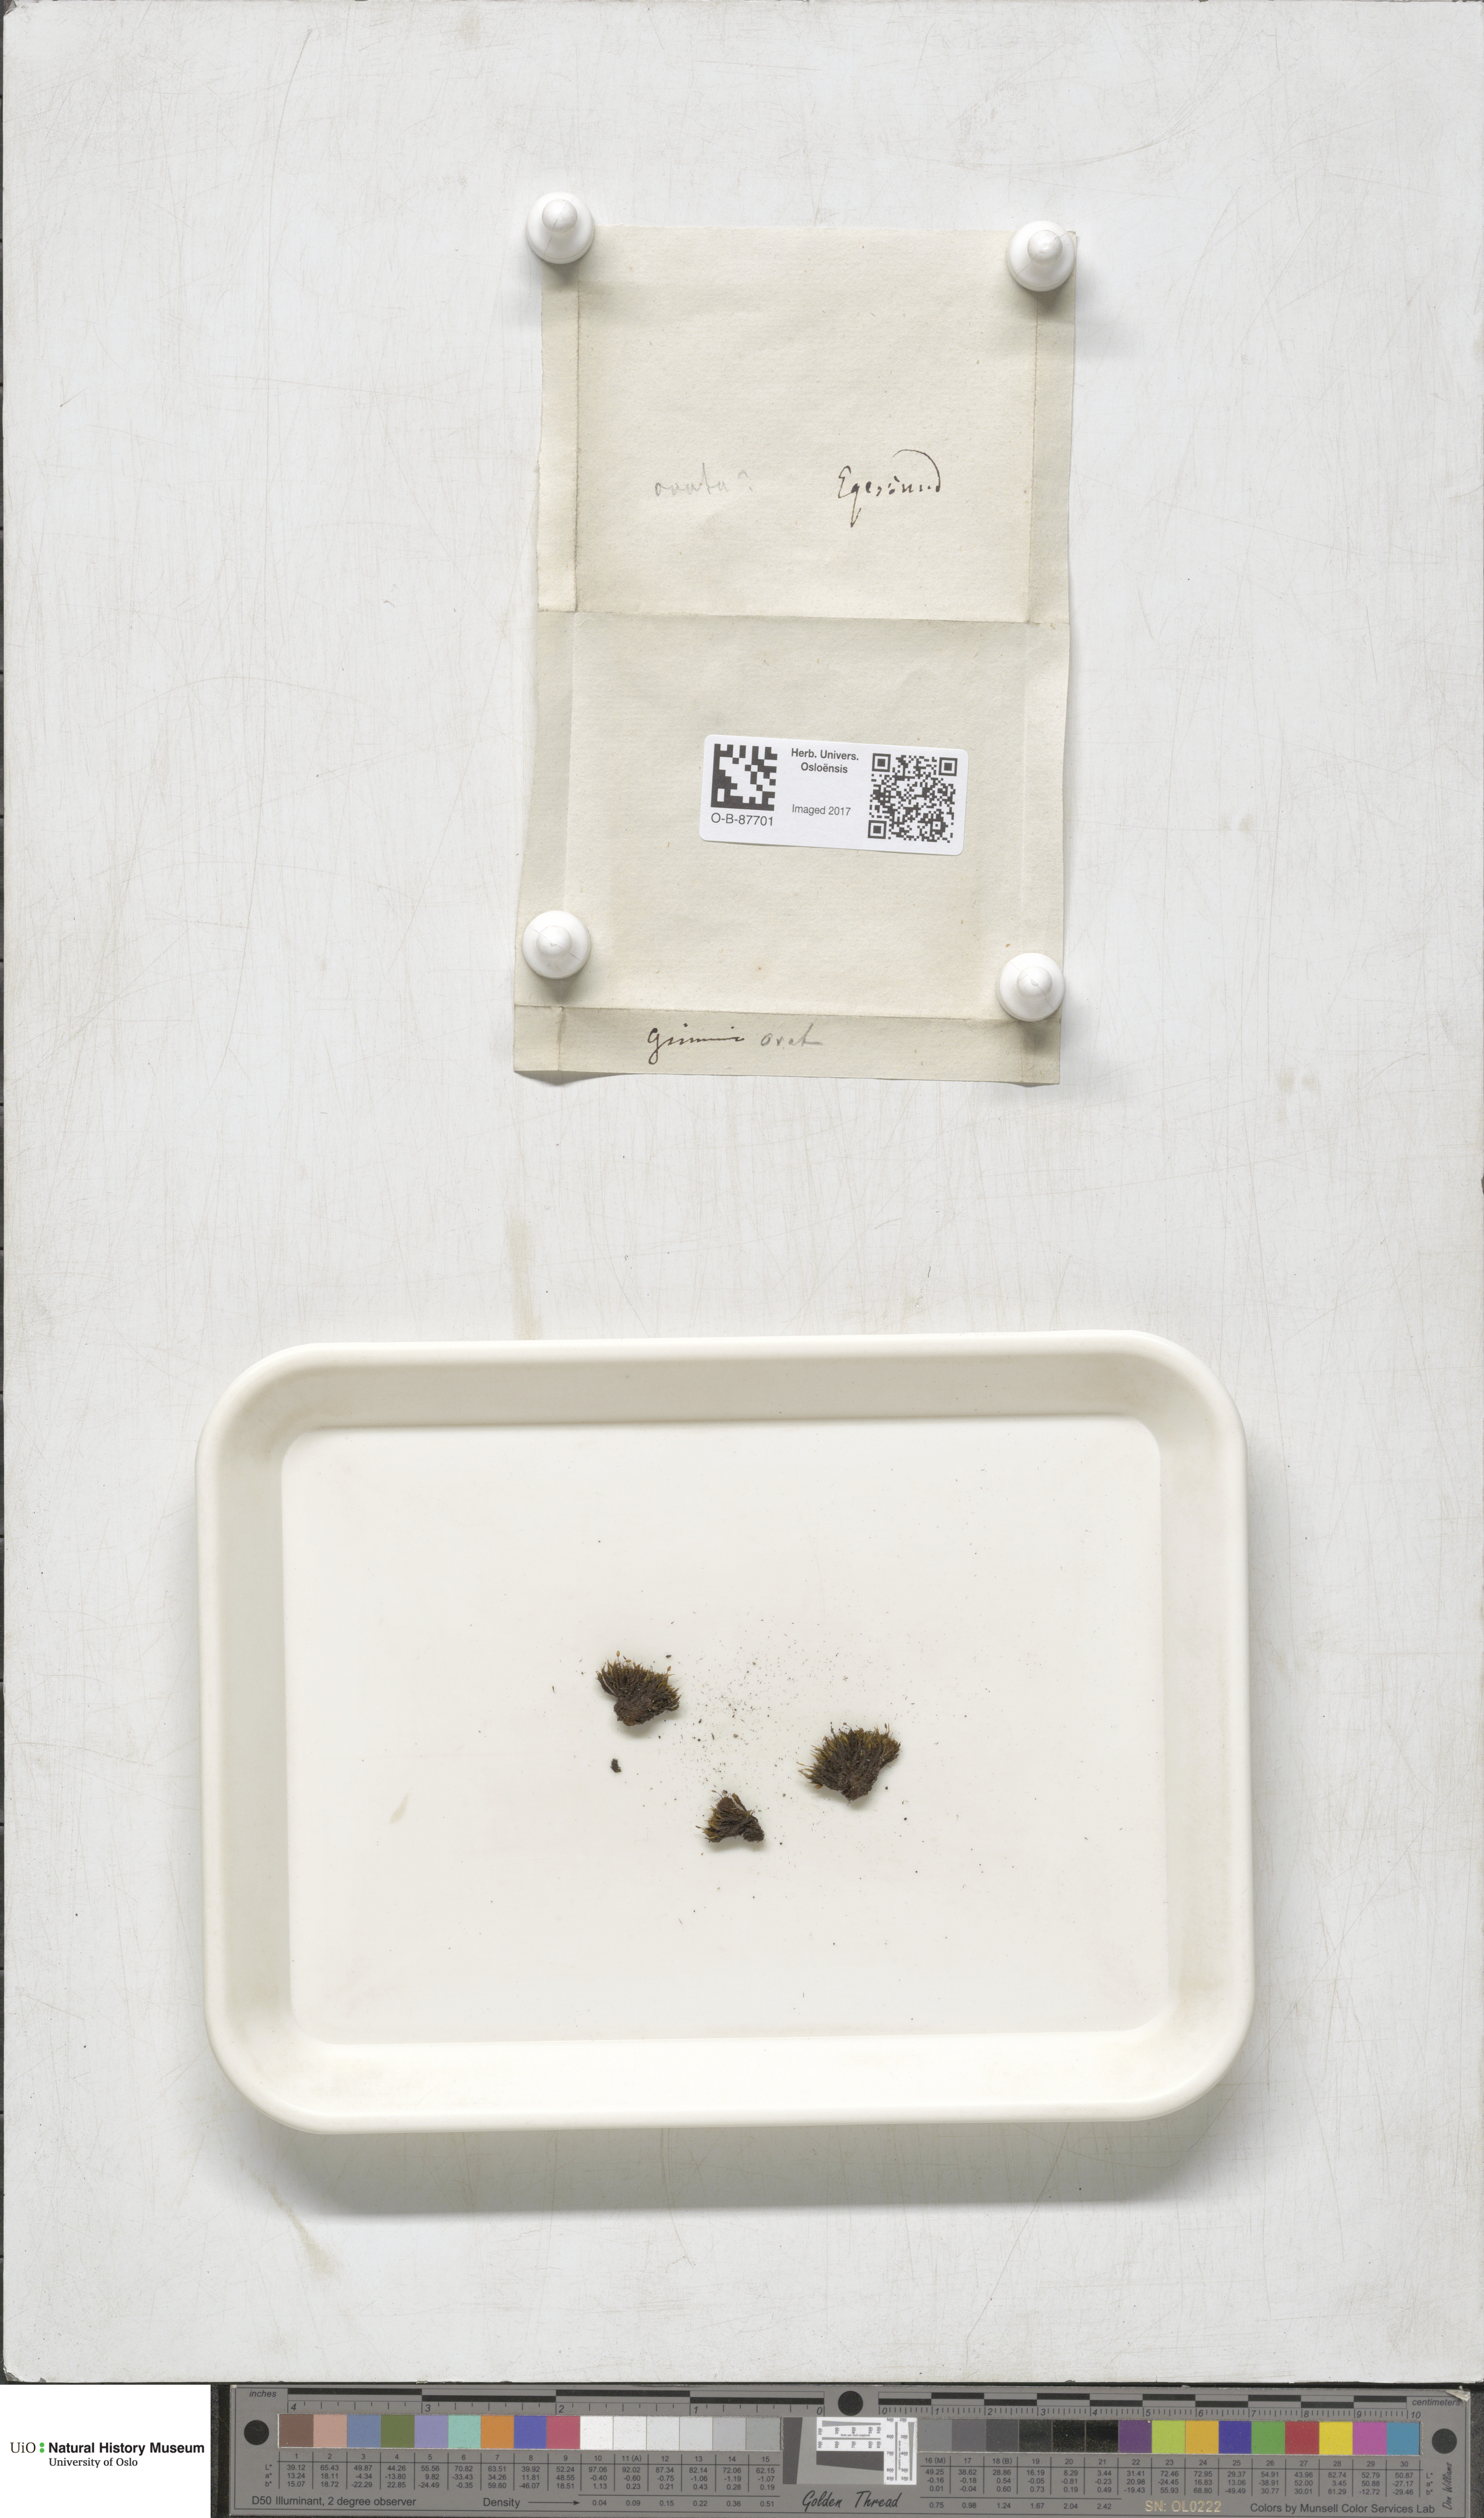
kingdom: Plantae
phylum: Bryophyta
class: Bryopsida
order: Grimmiales
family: Grimmiaceae
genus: Grimmia
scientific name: Grimmia ovalis
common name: Oval grimmia
